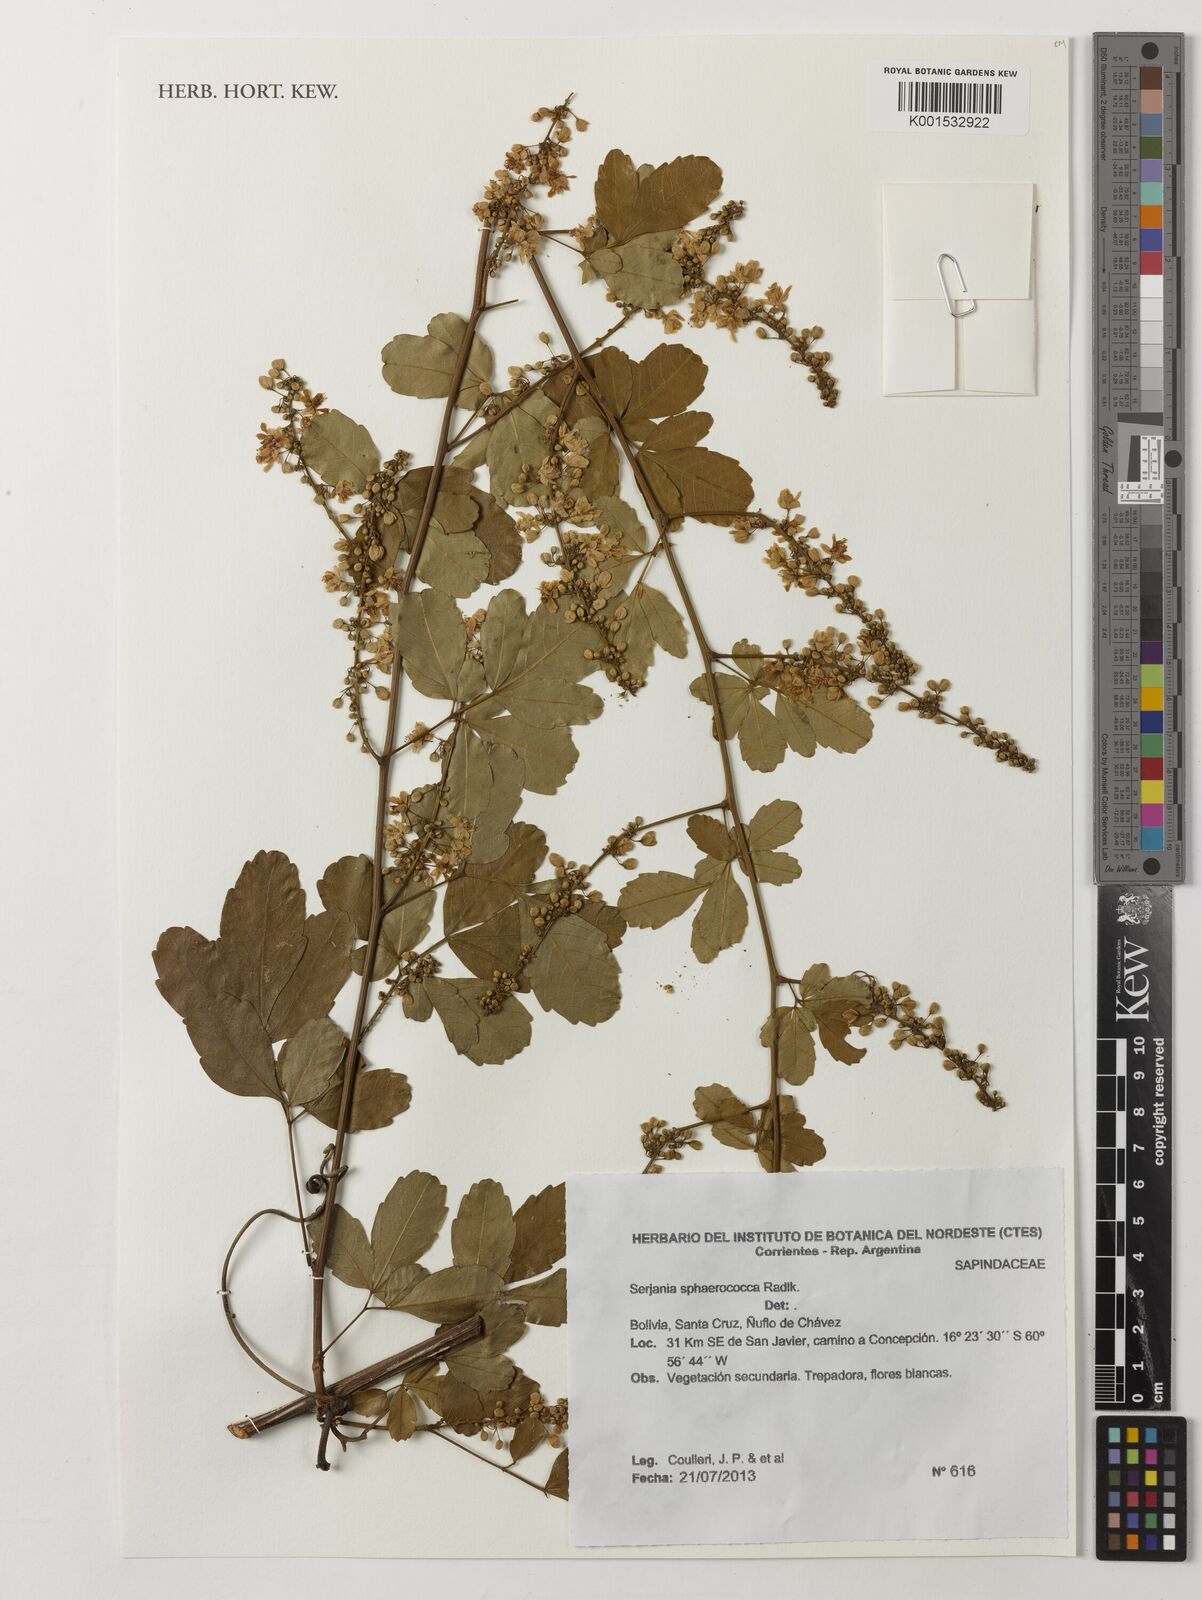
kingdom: Plantae
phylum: Tracheophyta
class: Magnoliopsida
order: Sapindales
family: Sapindaceae
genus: Serjania
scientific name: Serjania sphaerococca
